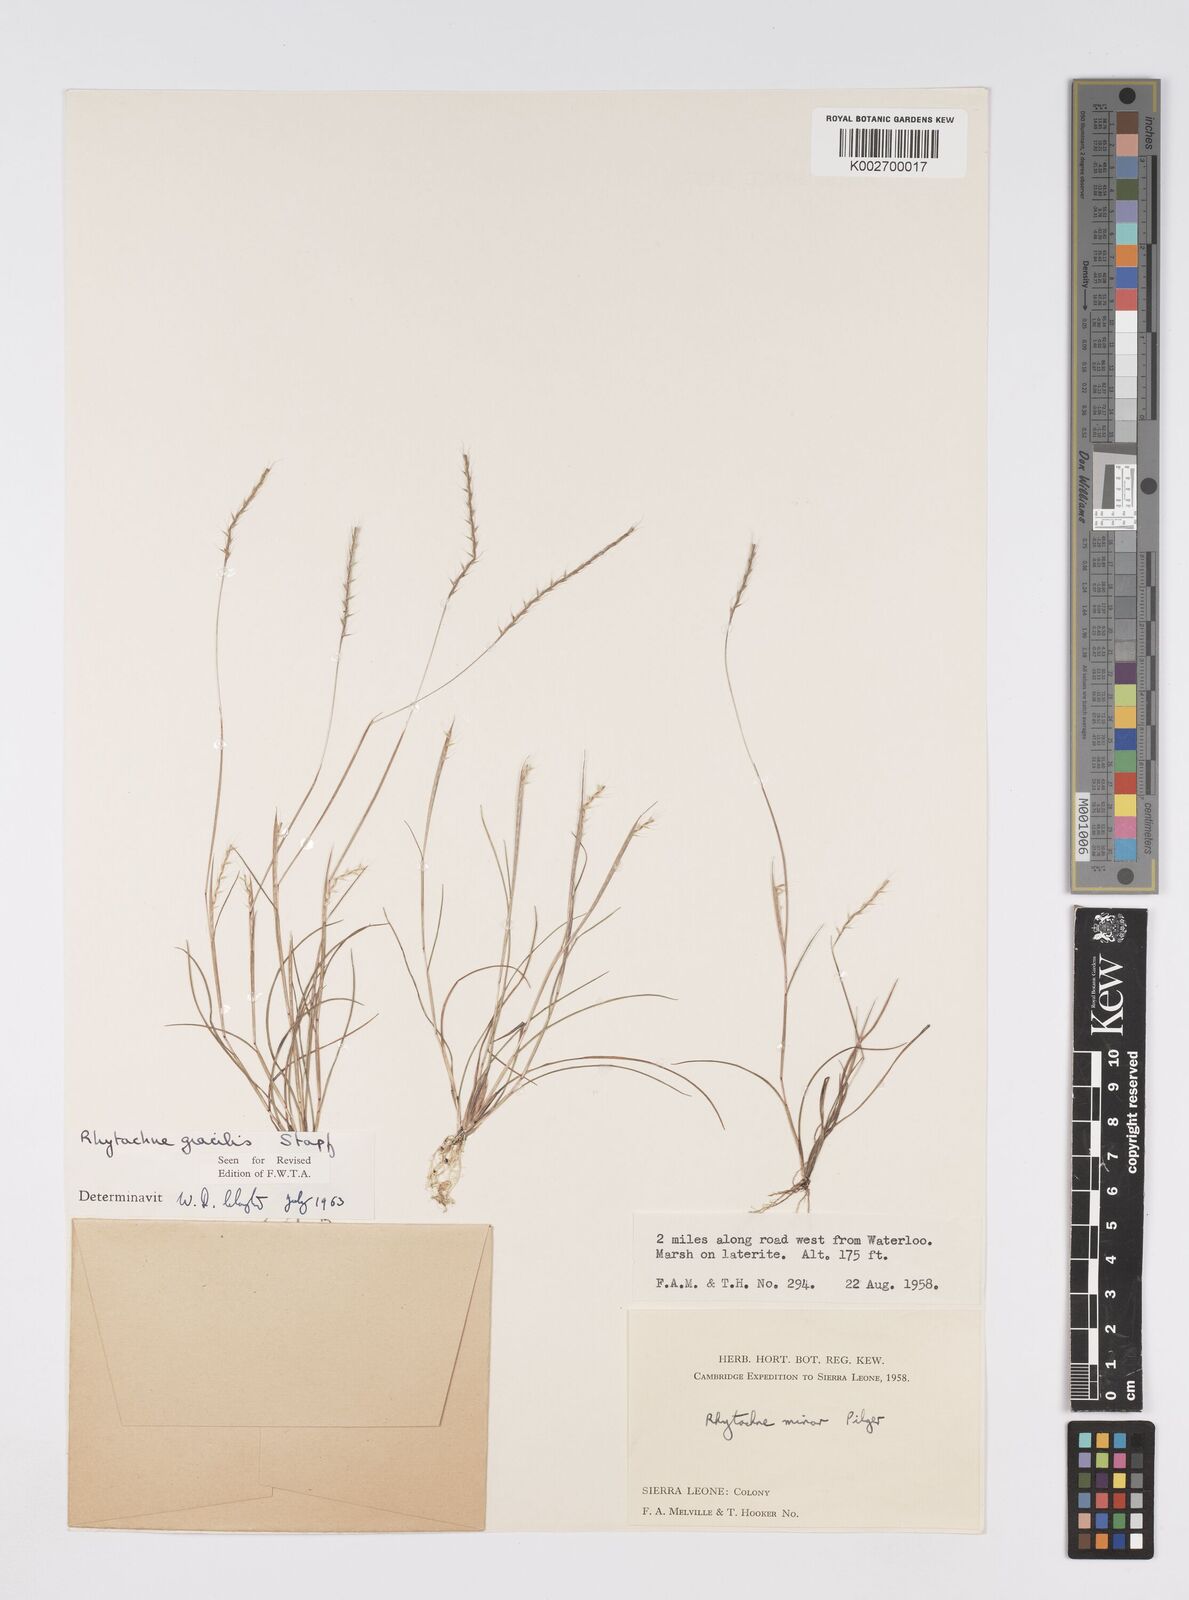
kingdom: Plantae
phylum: Tracheophyta
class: Liliopsida
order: Poales
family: Poaceae
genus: Rhytachne
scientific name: Rhytachne gracilis
